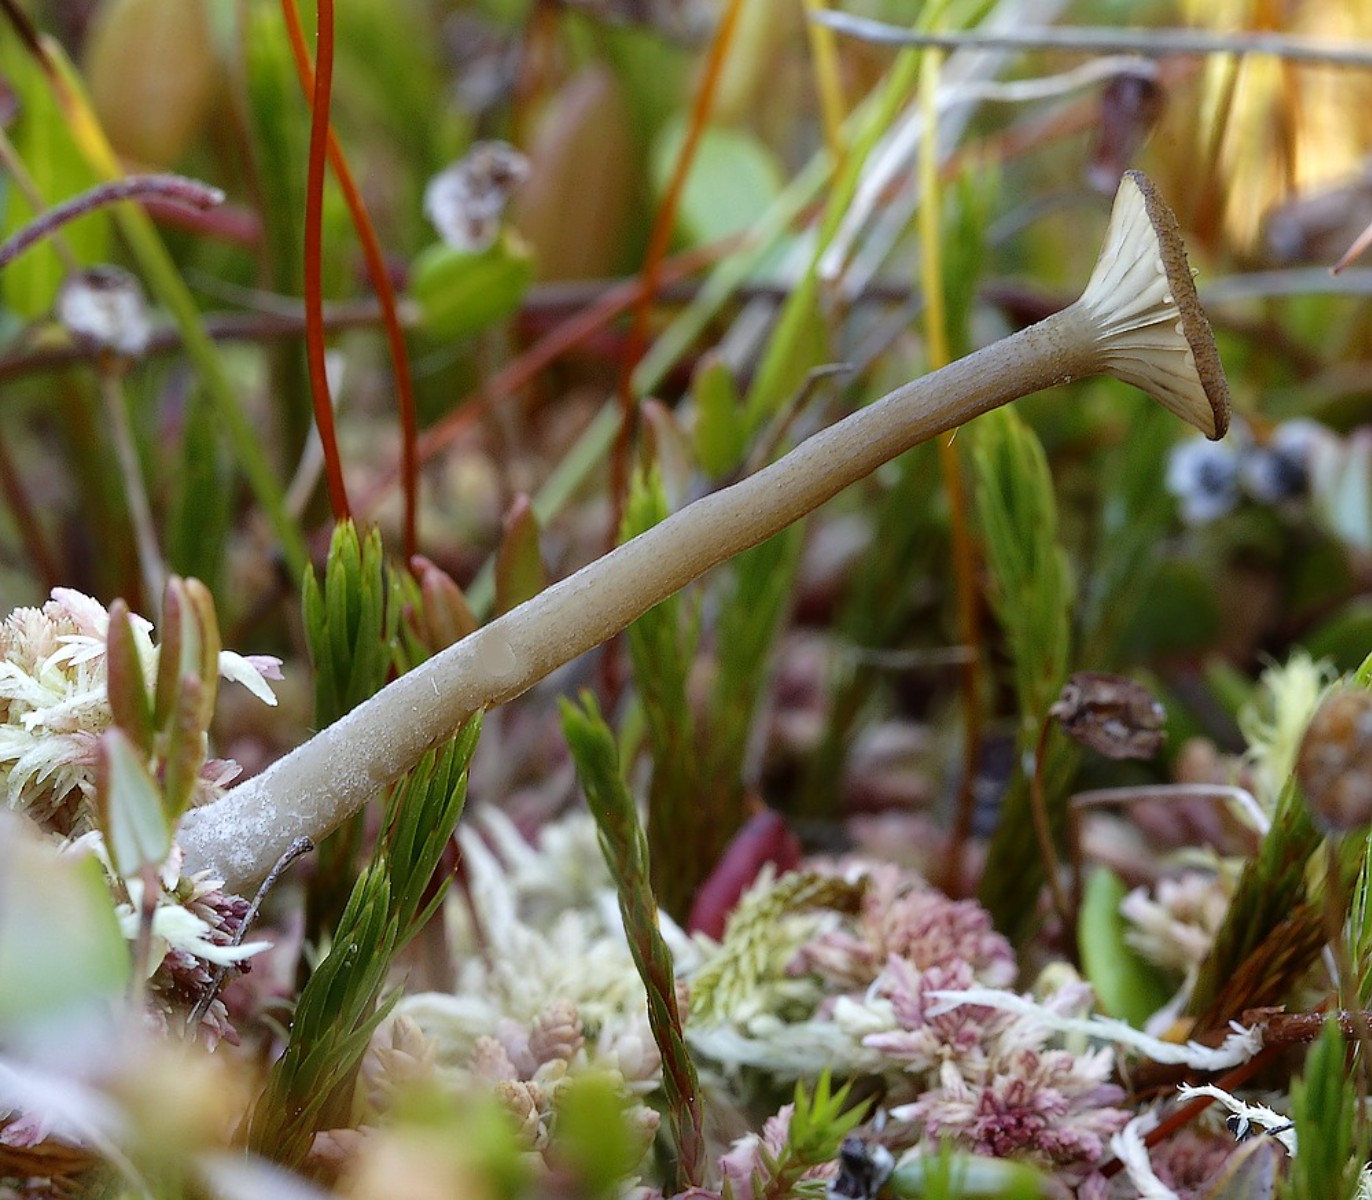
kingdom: Fungi
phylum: Basidiomycota
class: Agaricomycetes
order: Agaricales
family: Hygrophoraceae
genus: Arrhenia
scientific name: Arrhenia gerardiana
